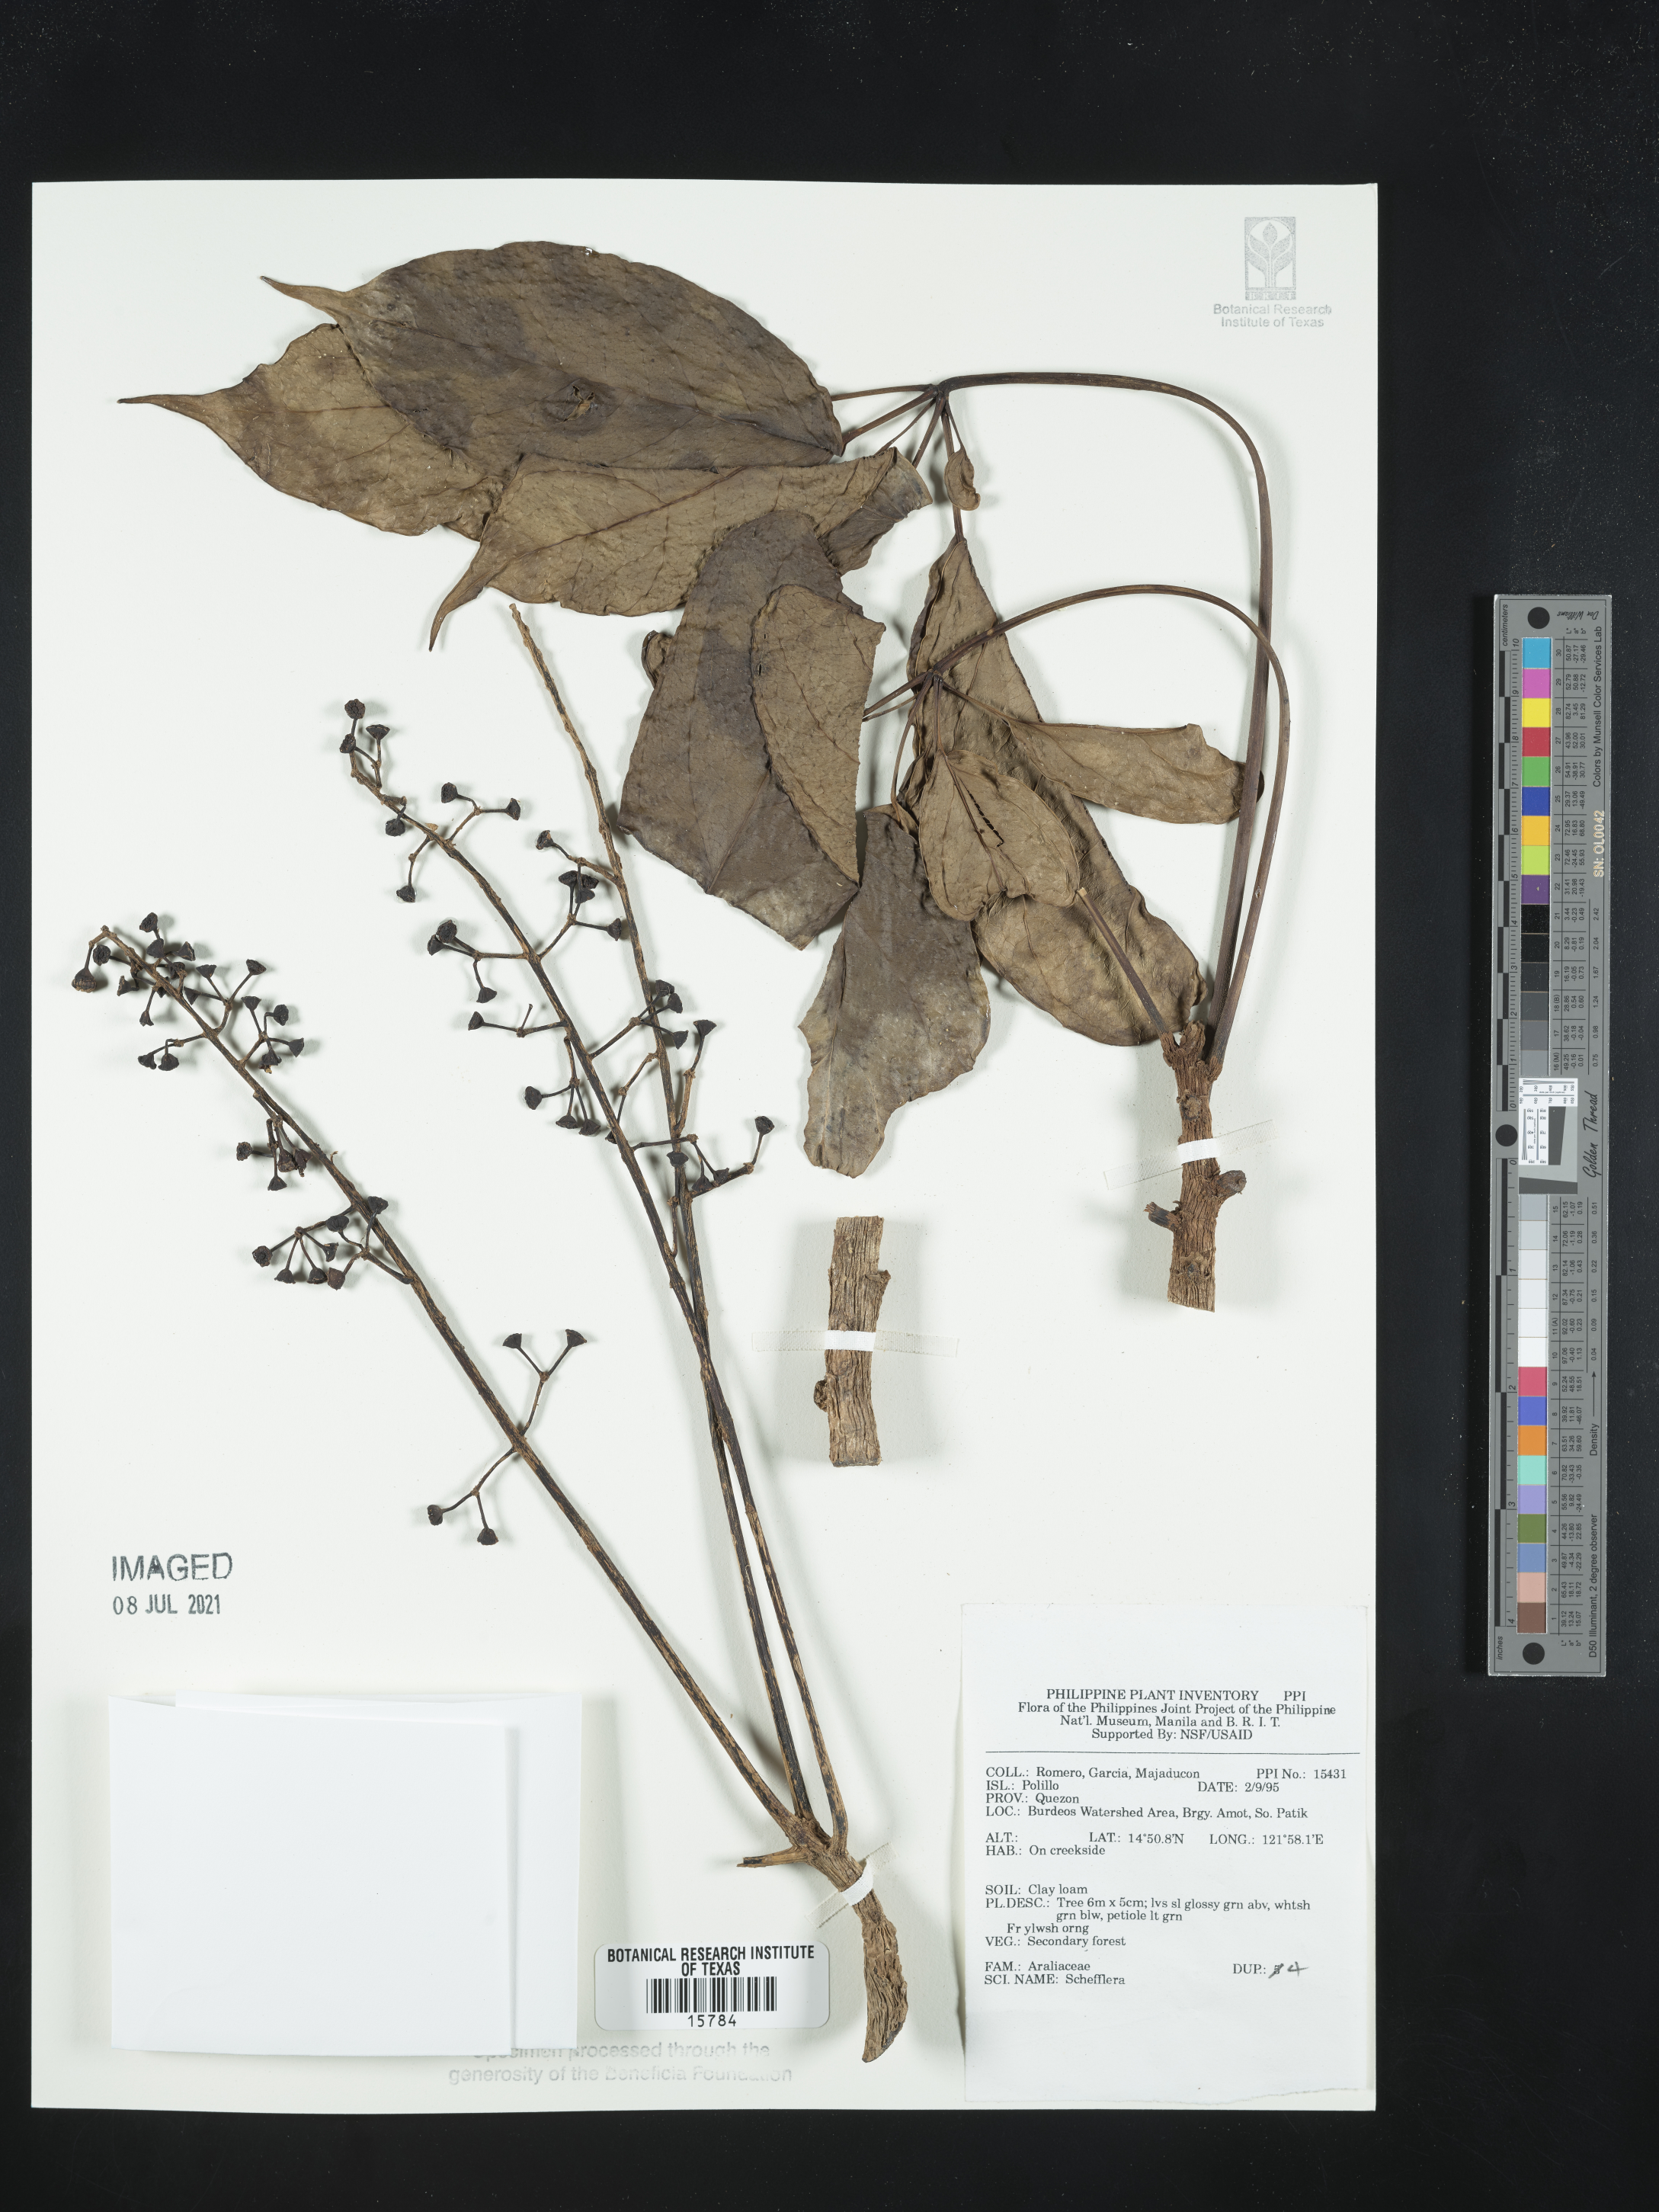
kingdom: Plantae
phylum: Tracheophyta
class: Magnoliopsida
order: Apiales
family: Araliaceae
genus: Schefflera
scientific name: Schefflera
